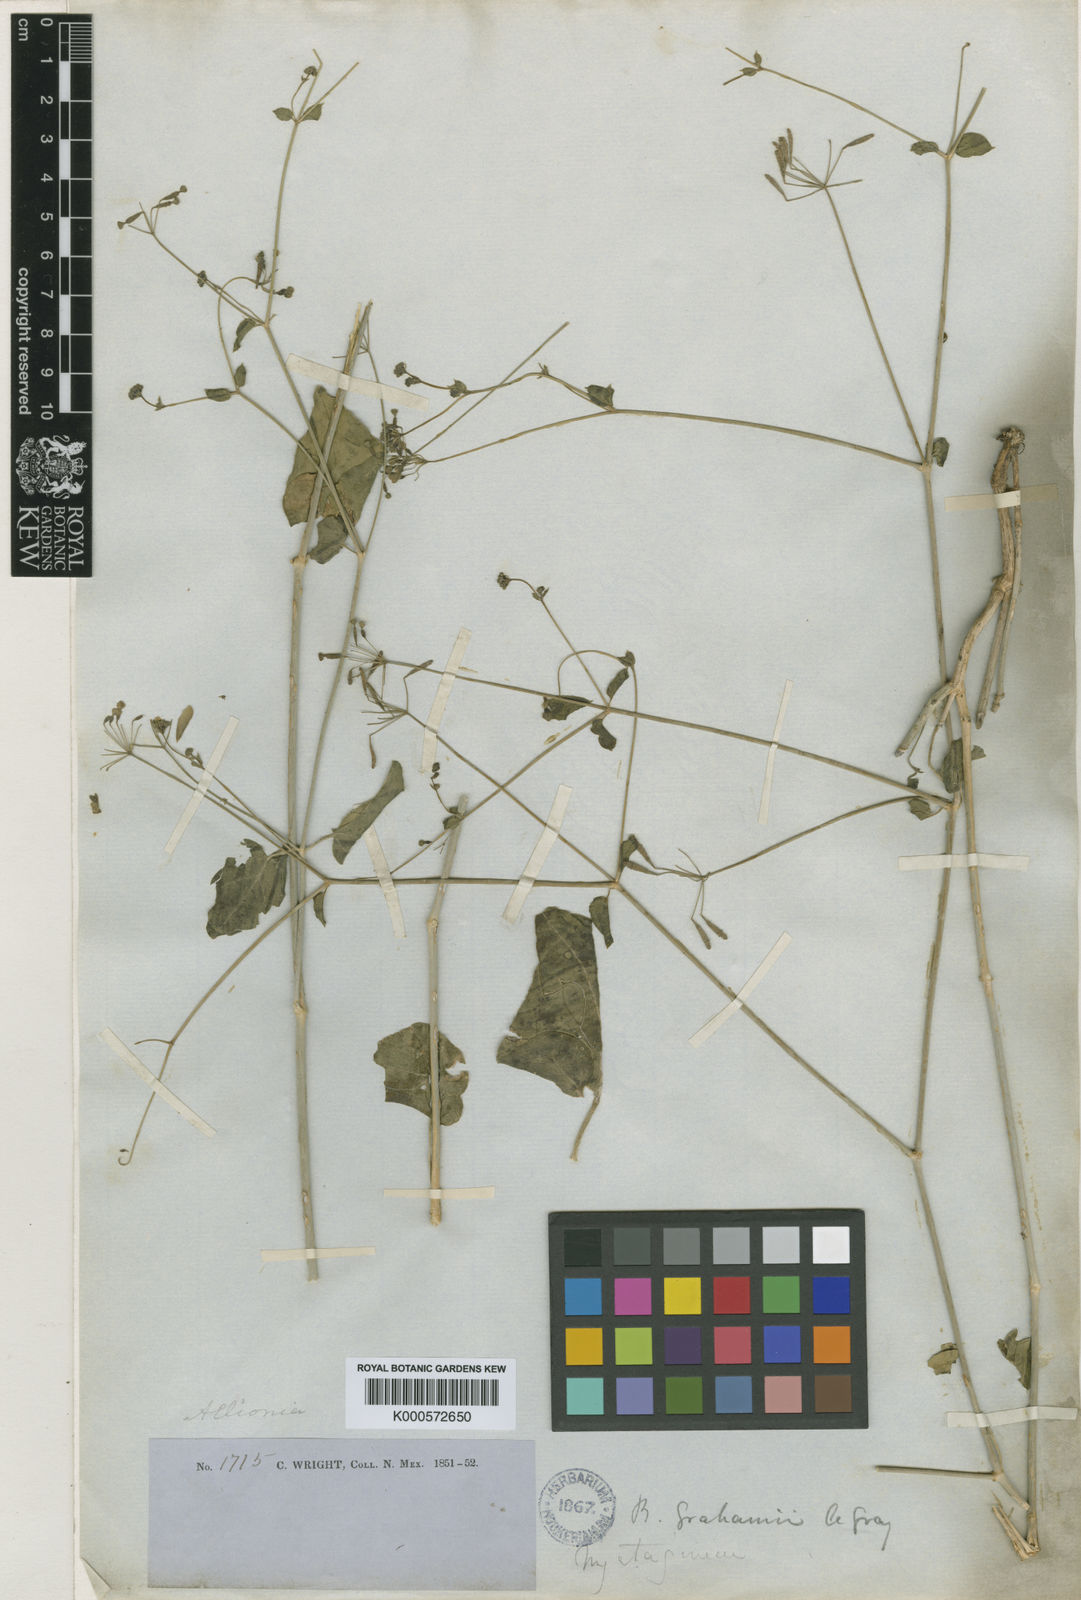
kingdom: Plantae
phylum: Tracheophyta
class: Magnoliopsida
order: Caryophyllales
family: Nyctaginaceae
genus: Boerhavia
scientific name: Boerhavia
